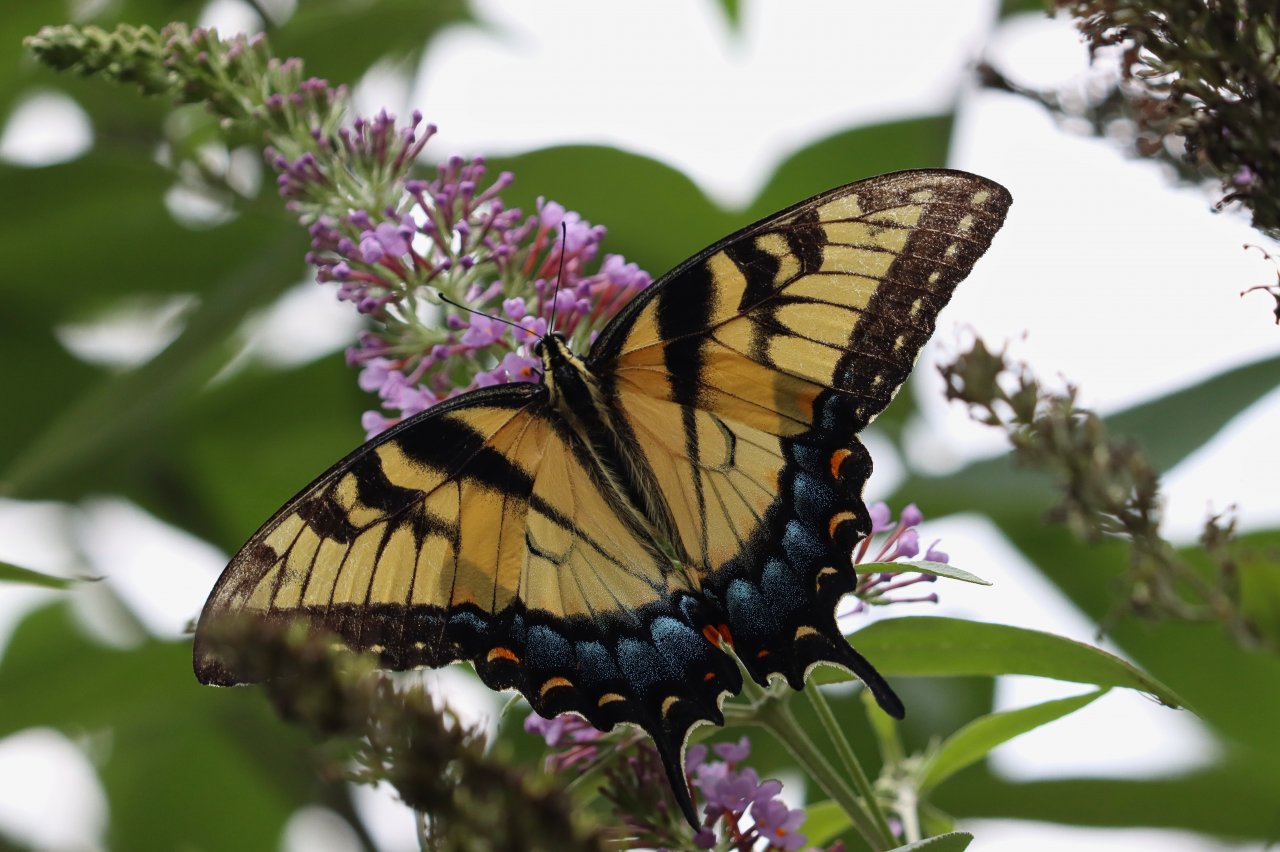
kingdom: Animalia
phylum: Arthropoda
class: Insecta
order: Lepidoptera
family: Papilionidae
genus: Pterourus
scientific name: Pterourus glaucus
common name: Eastern Tiger Swallowtail
